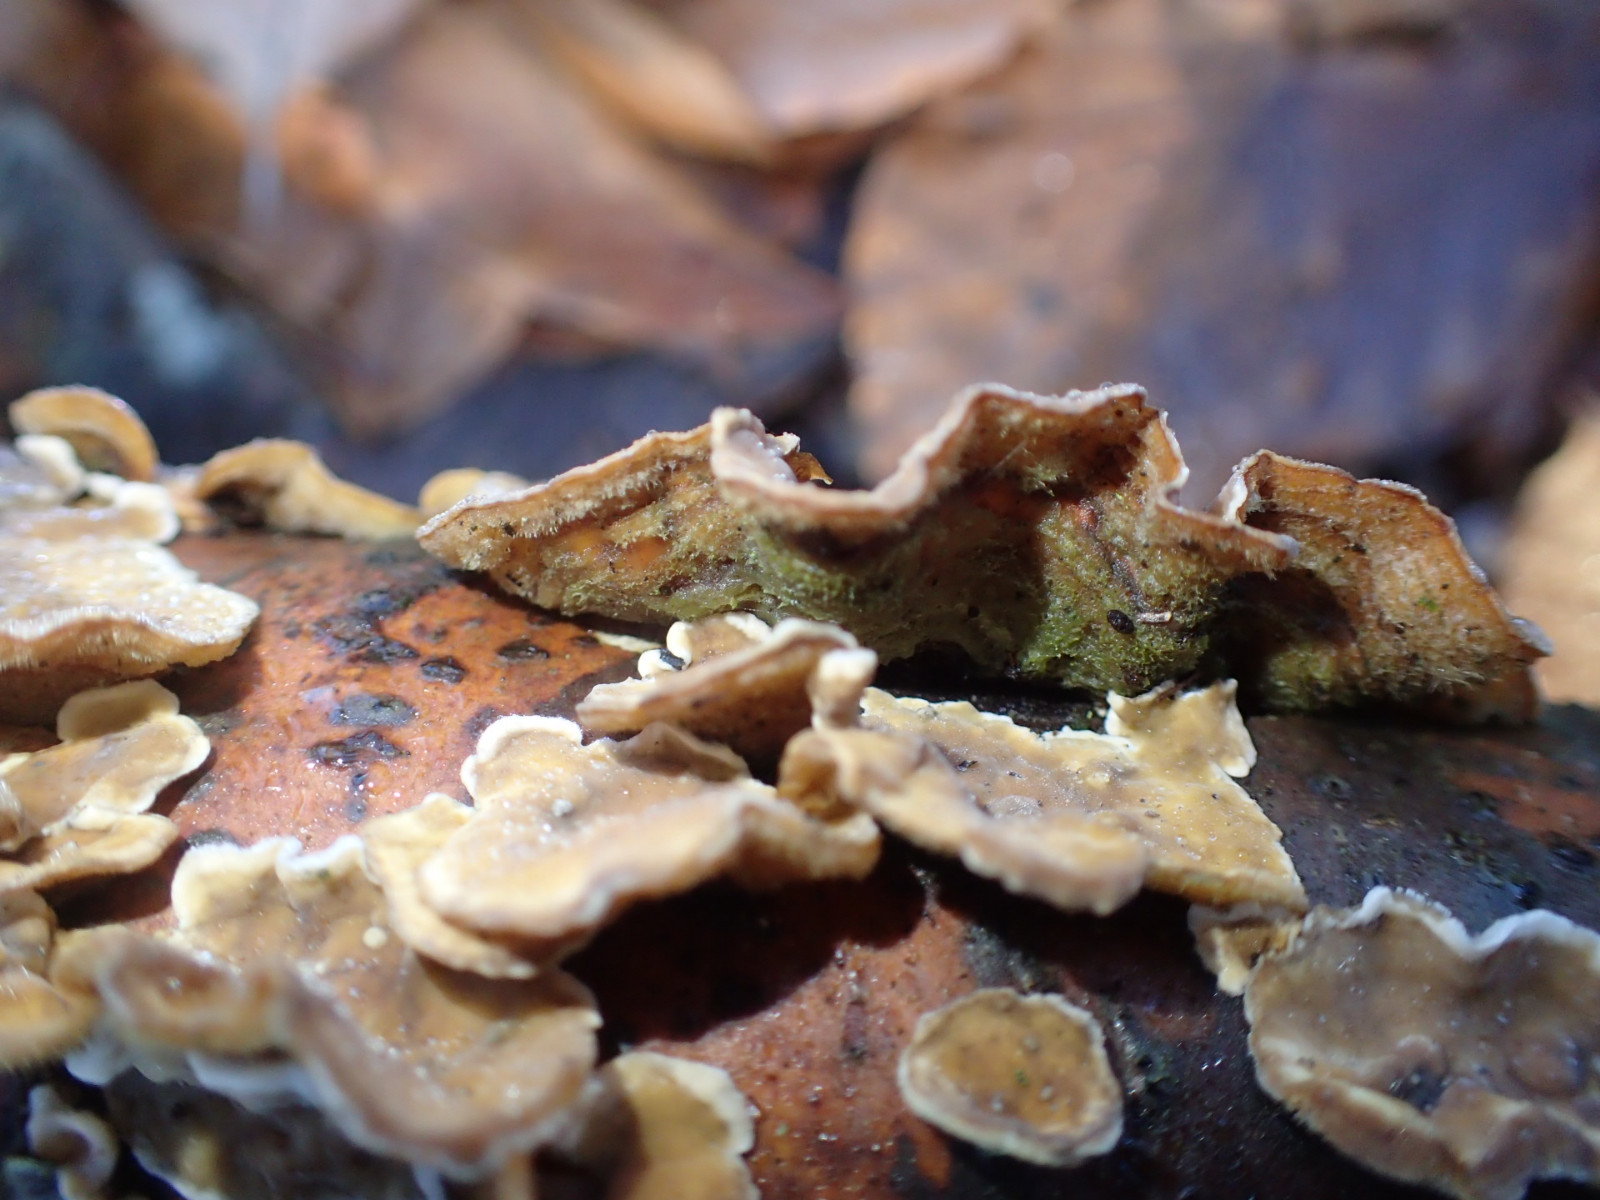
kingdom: Fungi
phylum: Basidiomycota
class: Agaricomycetes
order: Russulales
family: Stereaceae
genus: Stereum
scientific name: Stereum hirsutum
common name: håret lædersvamp
